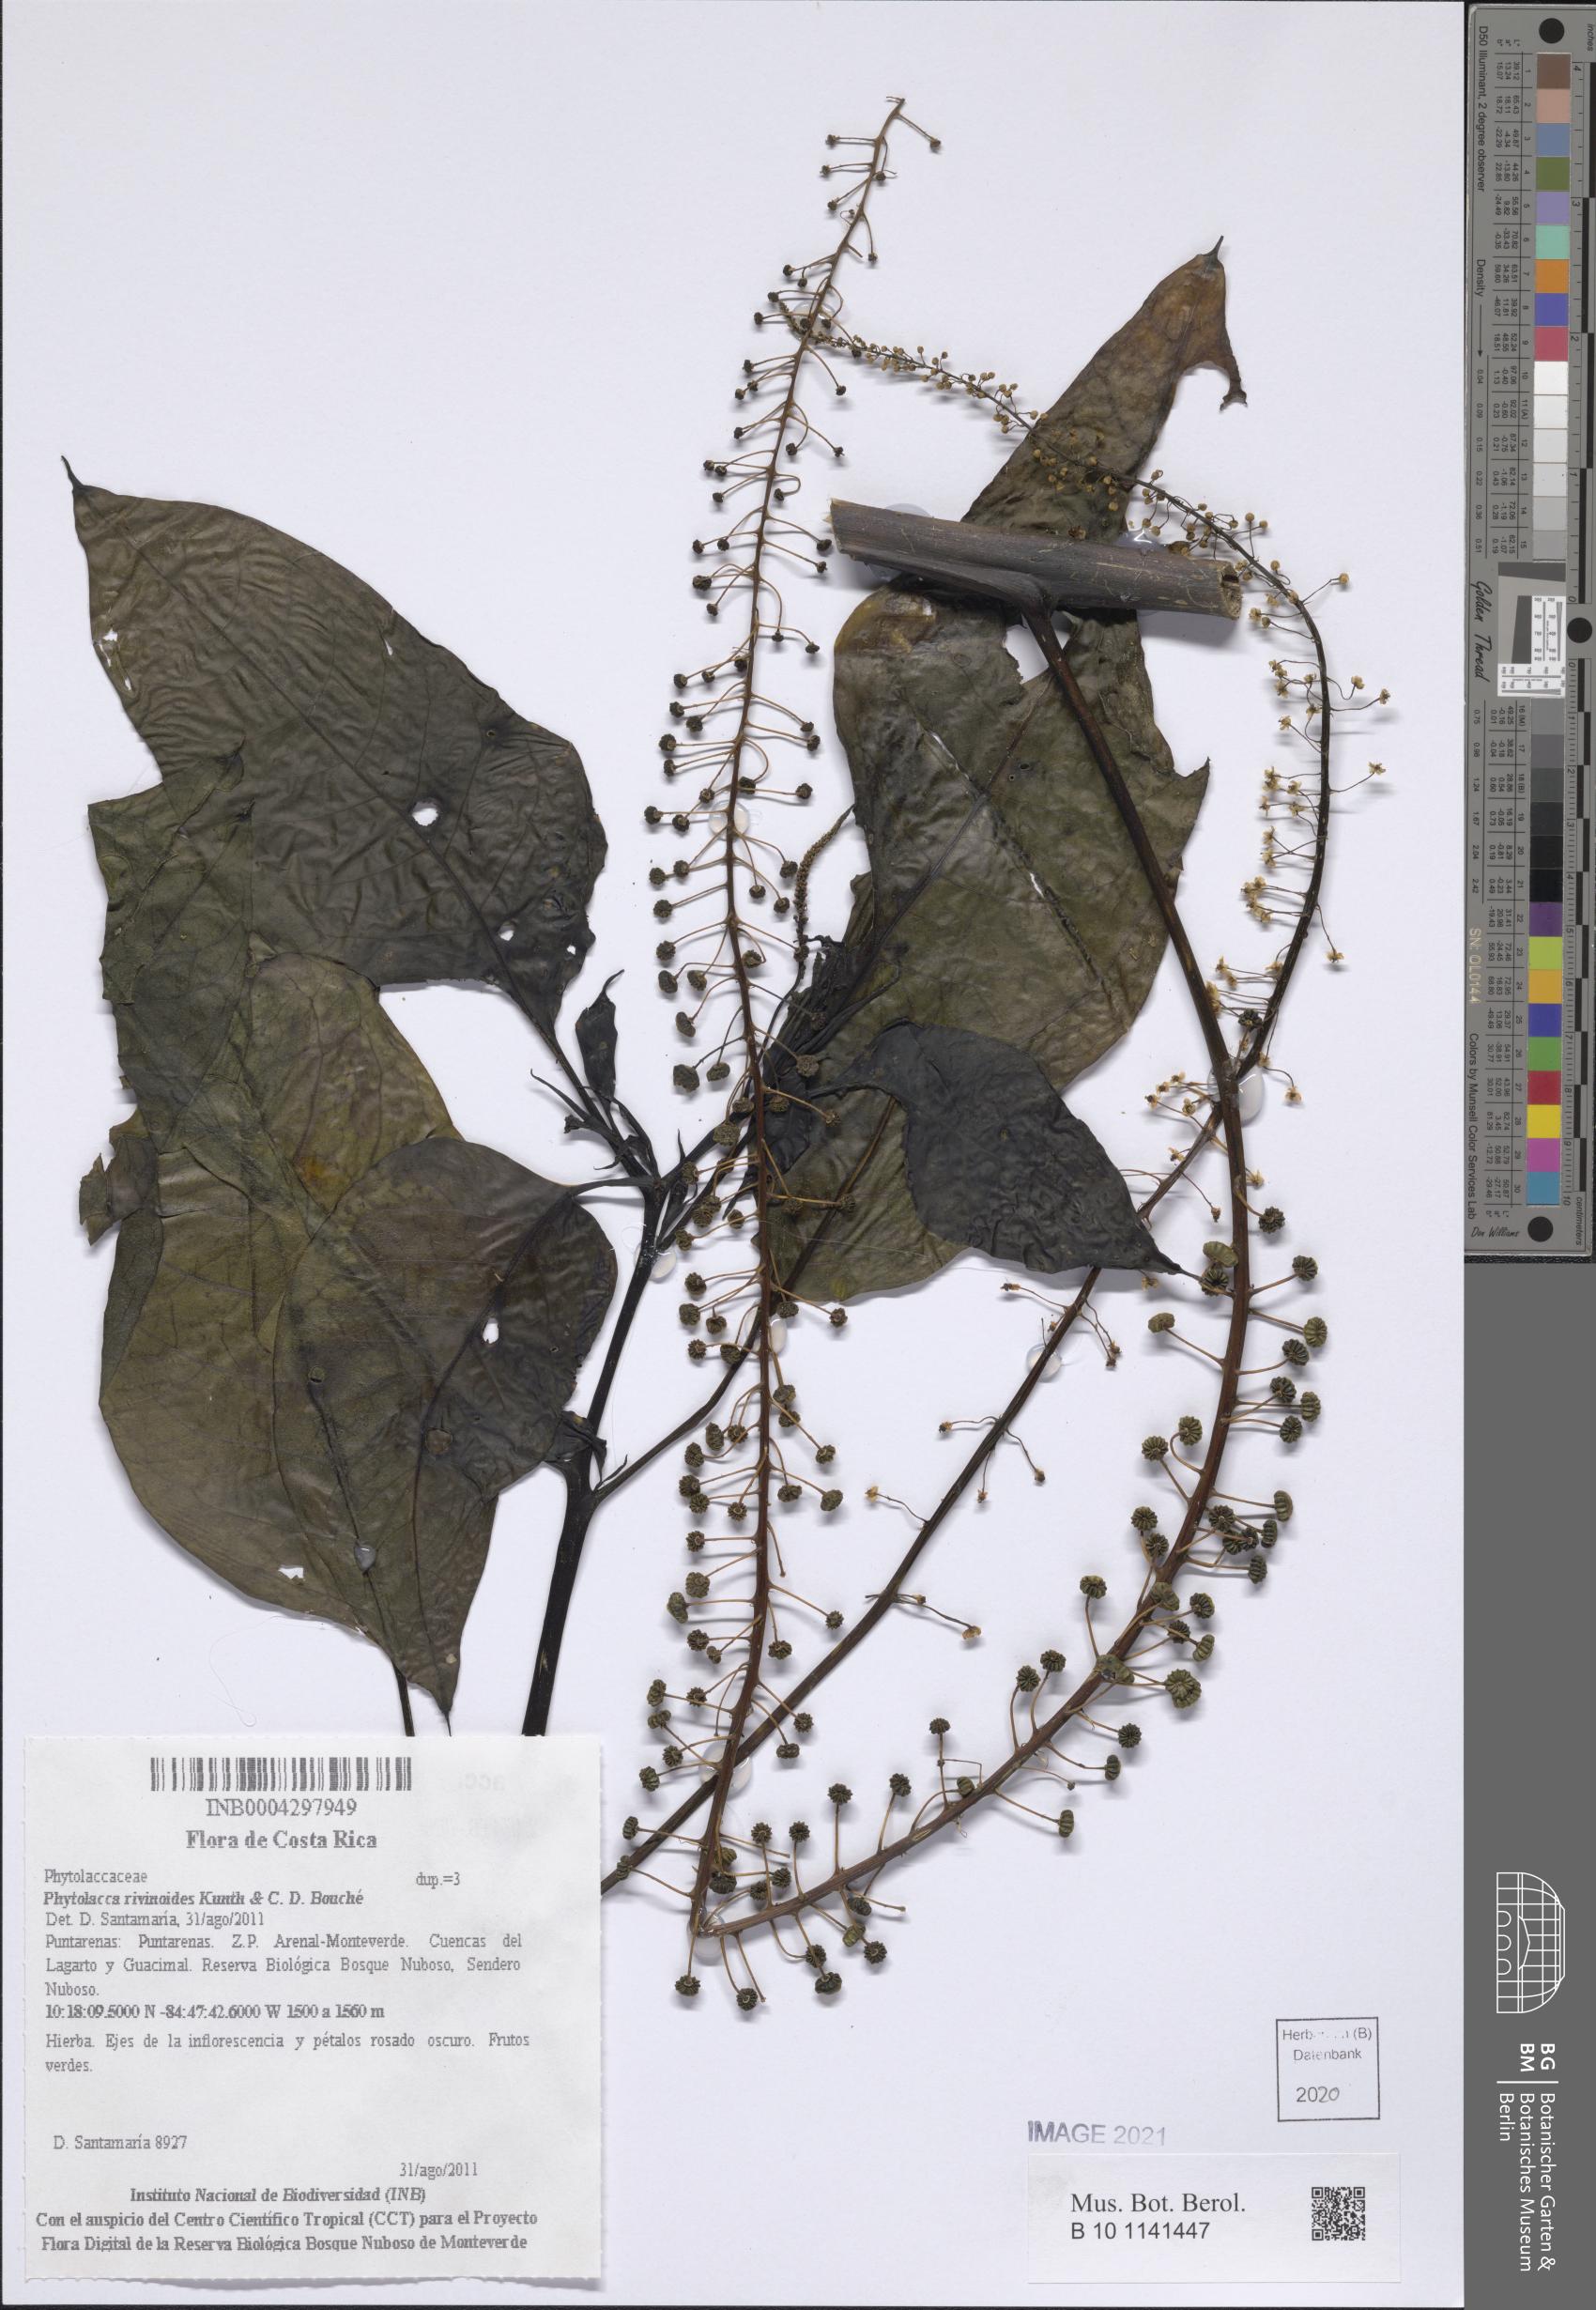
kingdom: Plantae
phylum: Tracheophyta
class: Magnoliopsida
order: Caryophyllales
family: Phytolaccaceae
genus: Phytolacca
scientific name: Phytolacca rivinoides
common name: Venezuelan pokeweed
